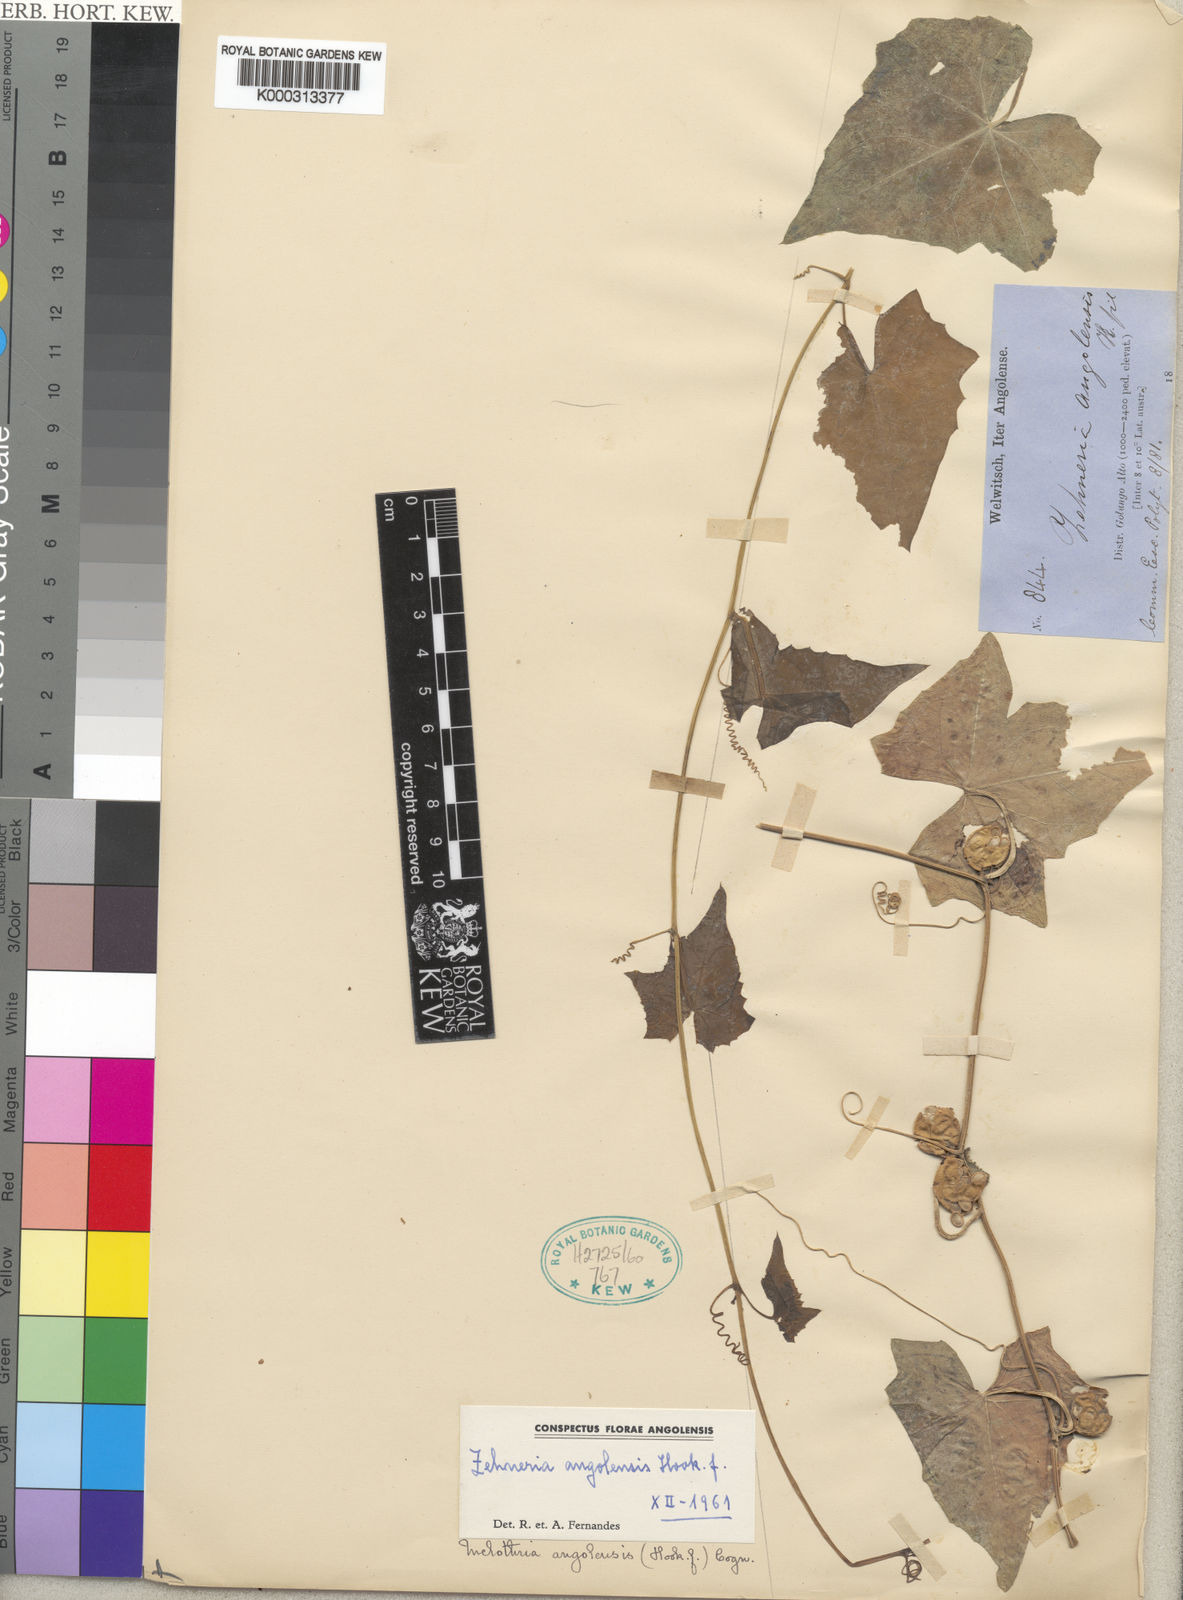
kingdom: Plantae
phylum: Tracheophyta
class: Magnoliopsida
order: Cucurbitales
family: Cucurbitaceae
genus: Zehneria
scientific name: Zehneria angolensis
